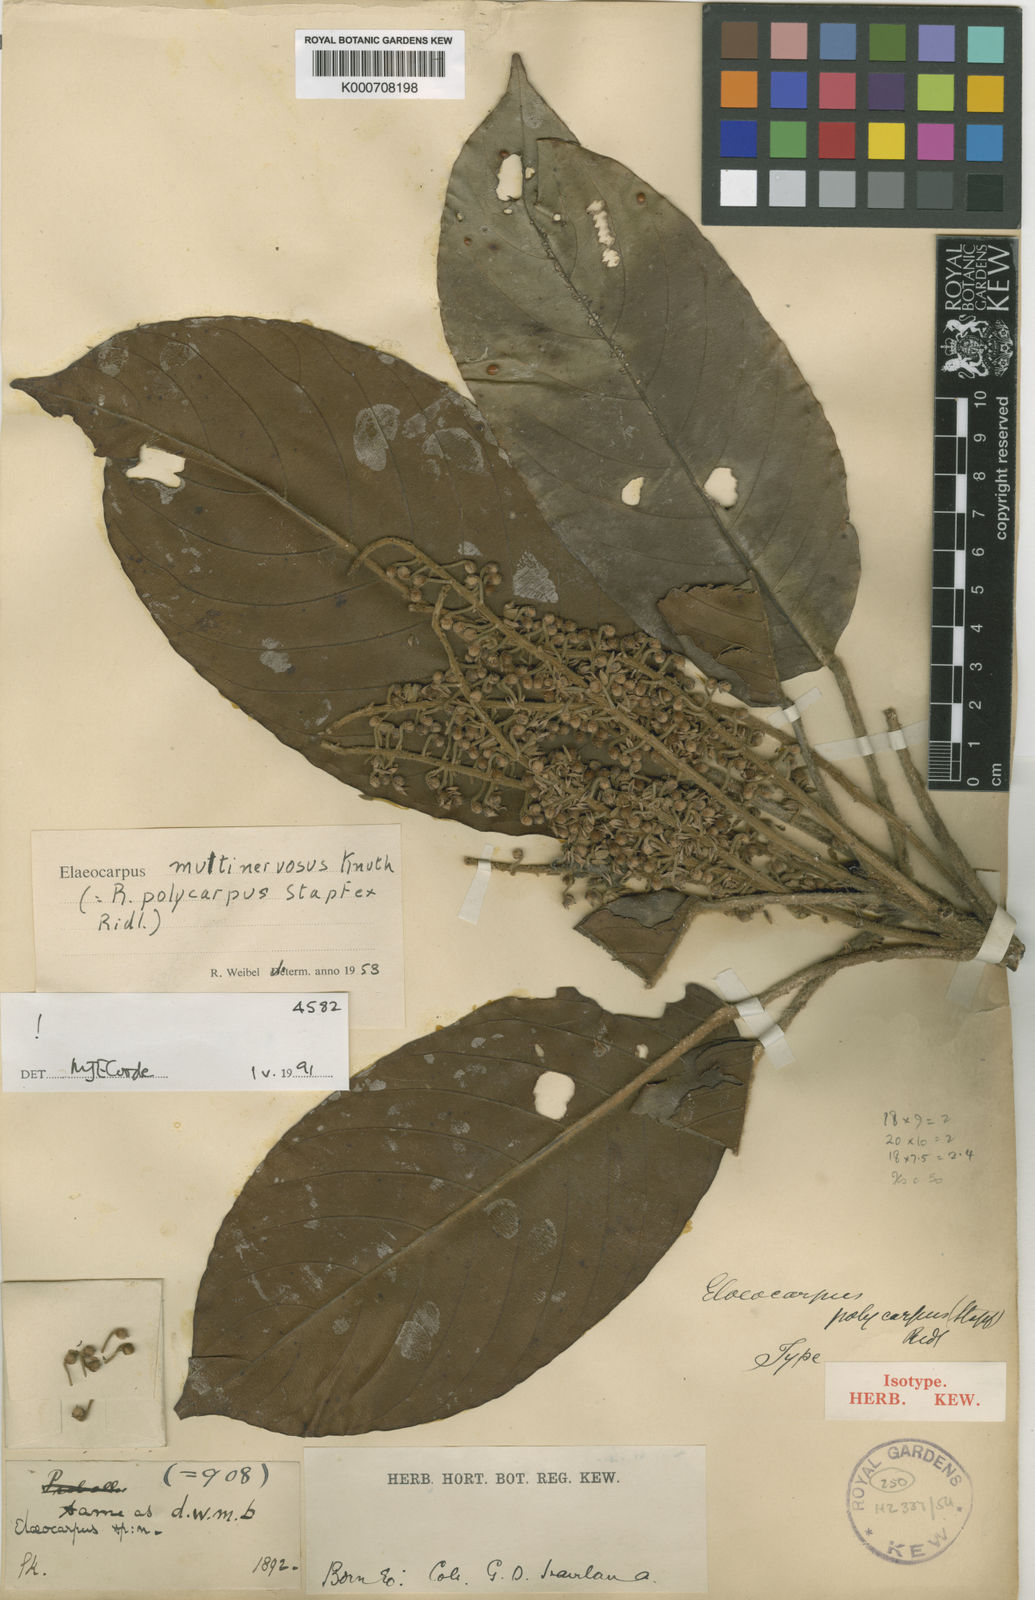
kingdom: Plantae
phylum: Tracheophyta
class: Magnoliopsida
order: Oxalidales
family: Elaeocarpaceae
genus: Elaeocarpus
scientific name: Elaeocarpus multinervosus
